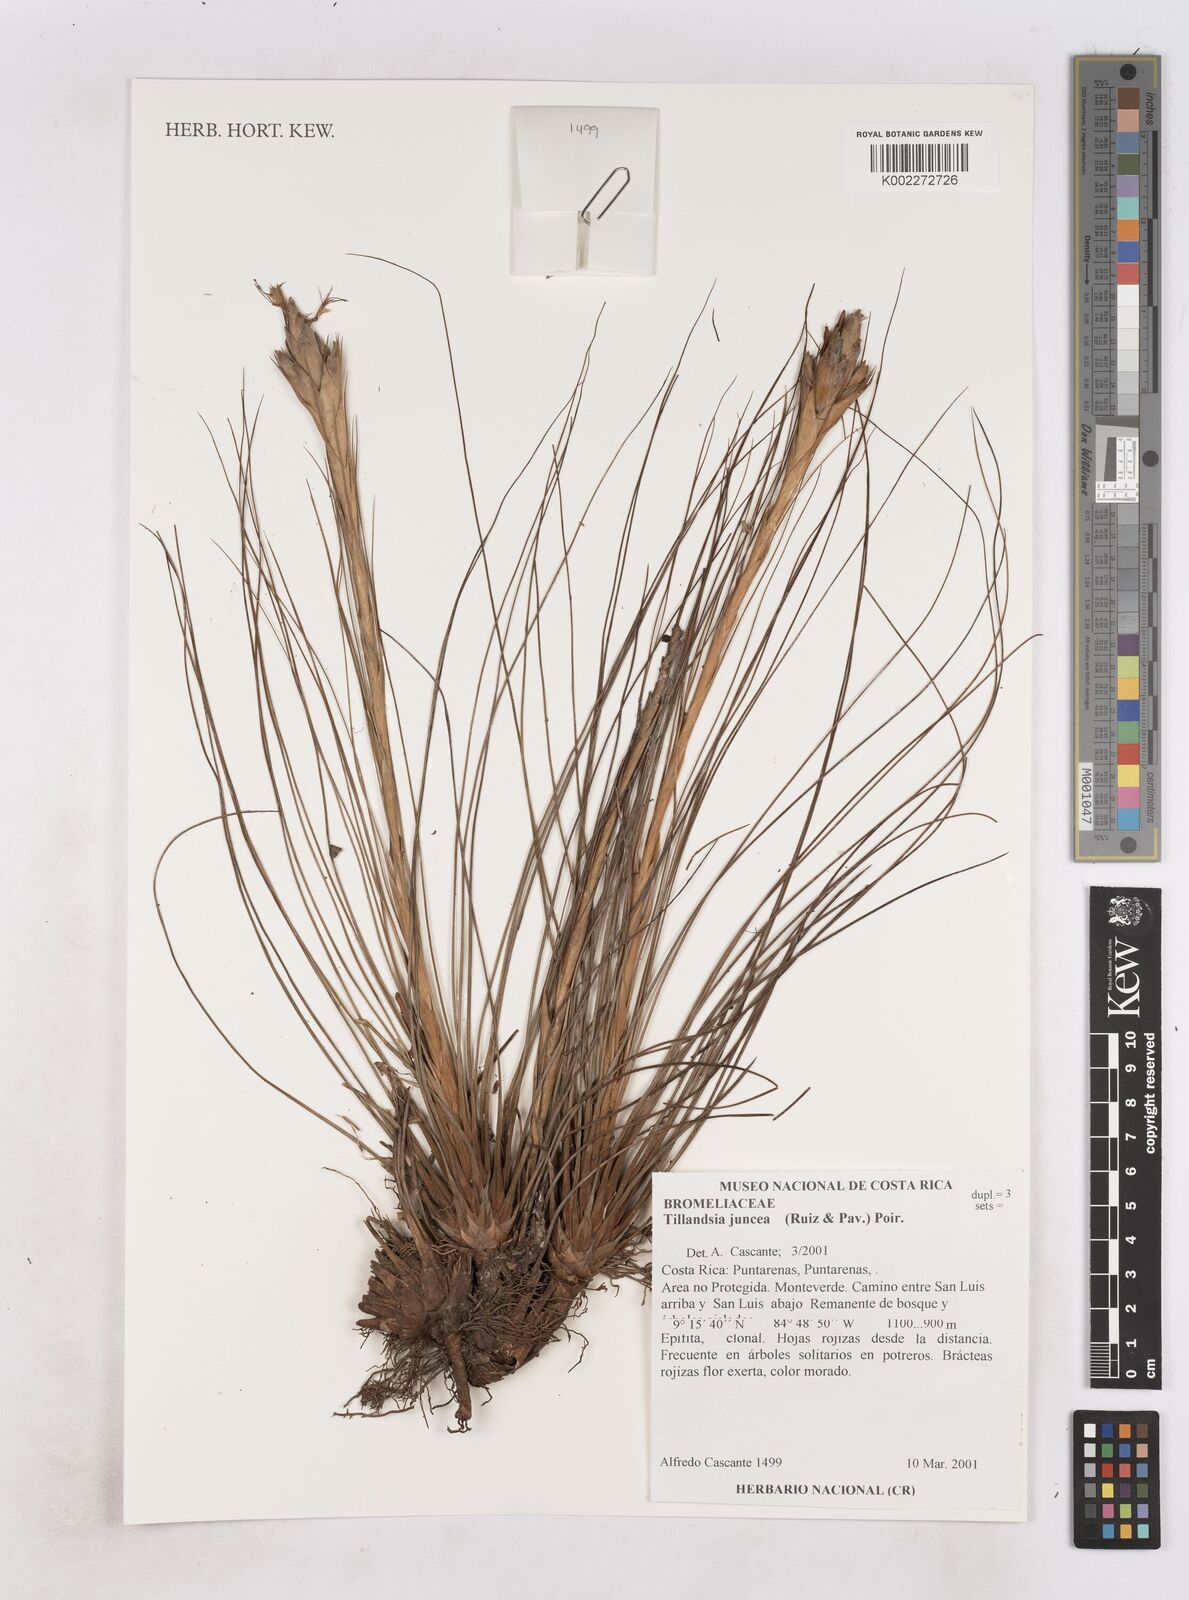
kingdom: Plantae
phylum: Tracheophyta
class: Liliopsida
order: Poales
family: Bromeliaceae
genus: Tillandsia
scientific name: Tillandsia juncea
